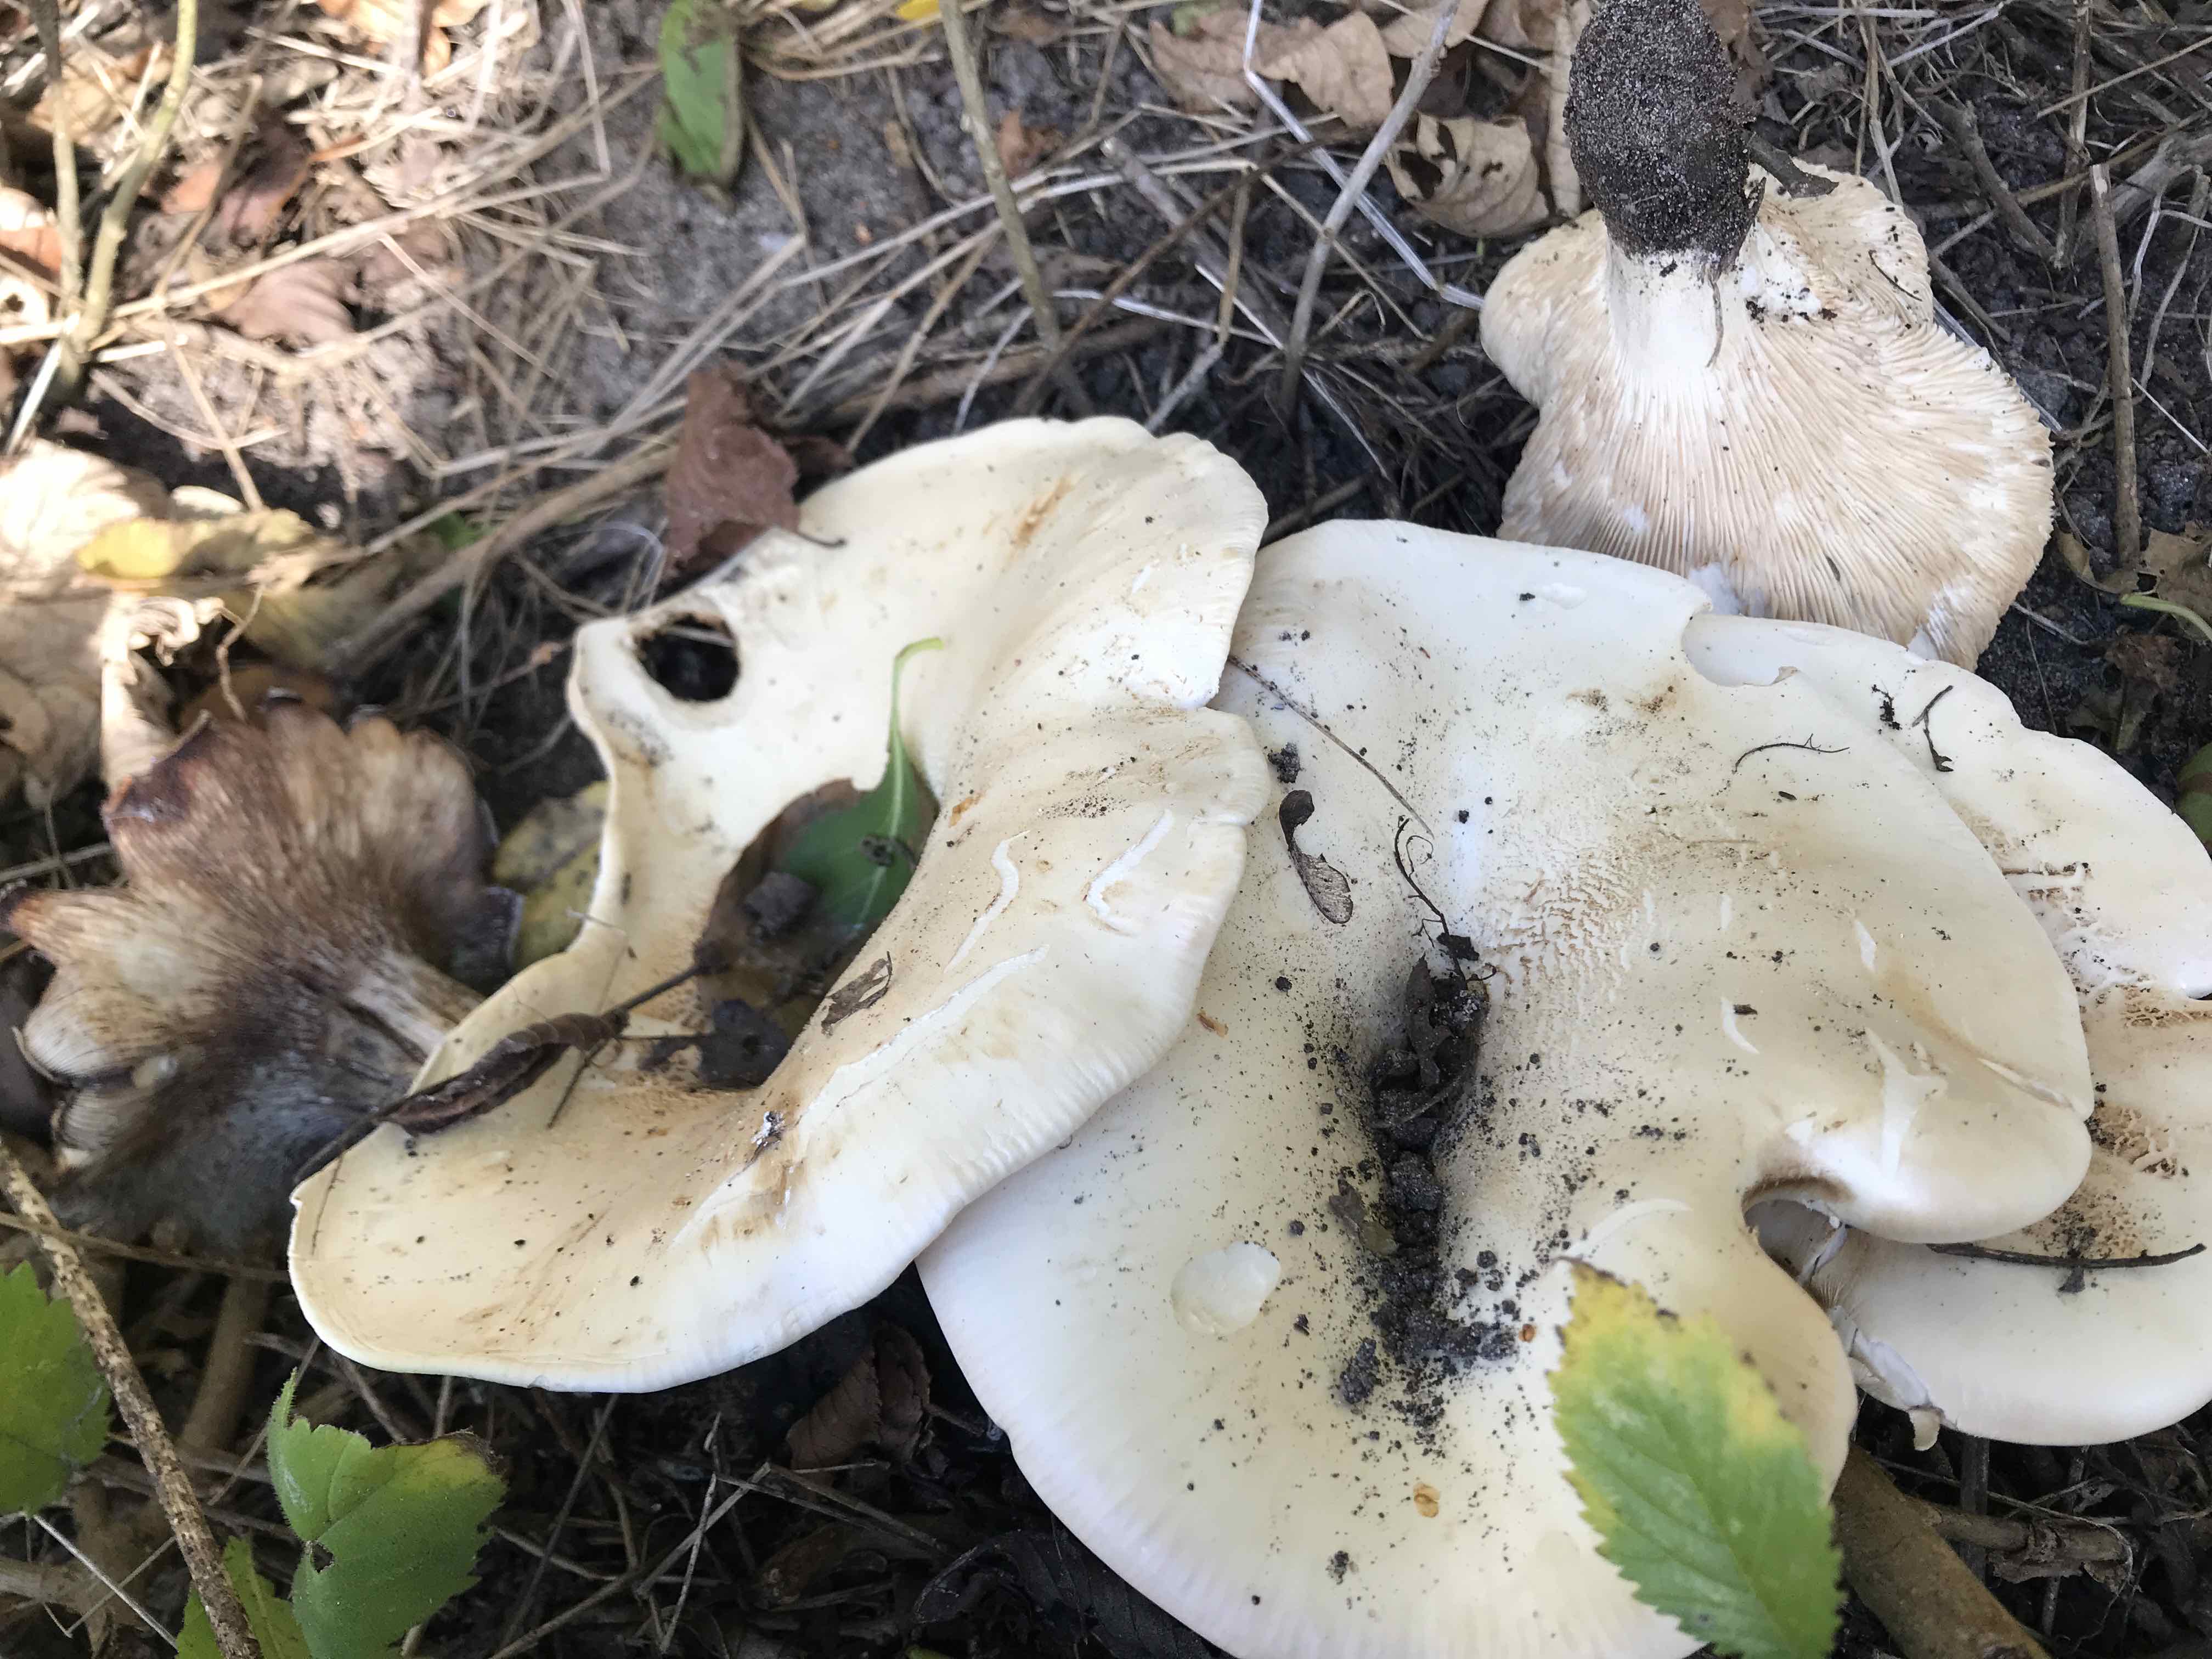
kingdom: Fungi
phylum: Basidiomycota
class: Agaricomycetes
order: Agaricales
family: Tricholomataceae
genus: Aspropaxillus
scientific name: Aspropaxillus giganteus
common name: kæmpe-tragtridderhat
